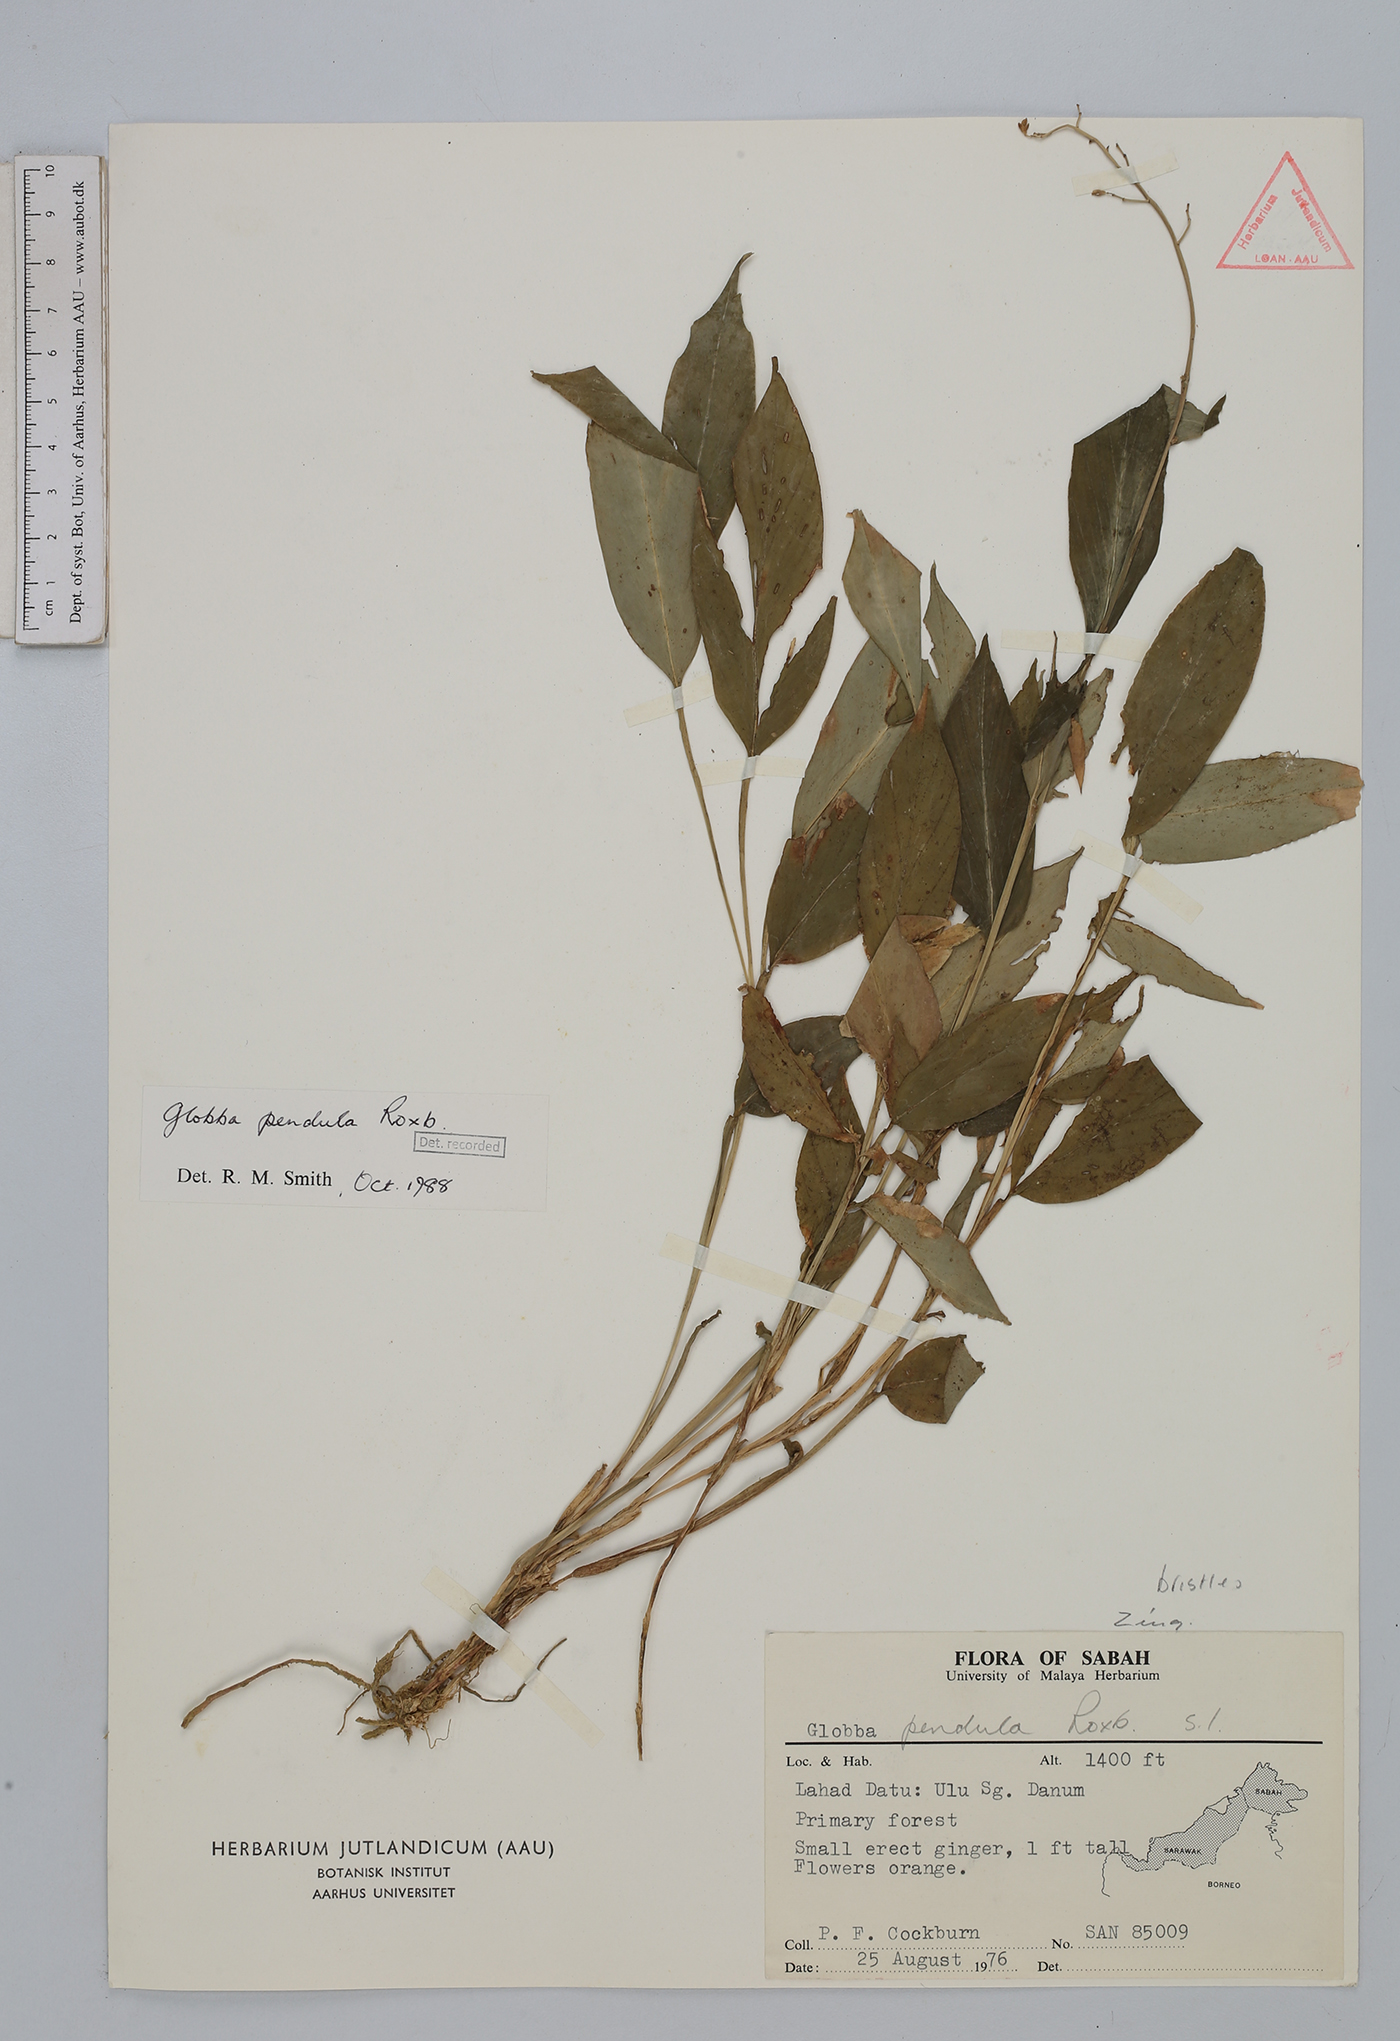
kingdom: Plantae
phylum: Tracheophyta
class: Liliopsida
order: Zingiberales
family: Zingiberaceae
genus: Globba
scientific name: Globba pendula
